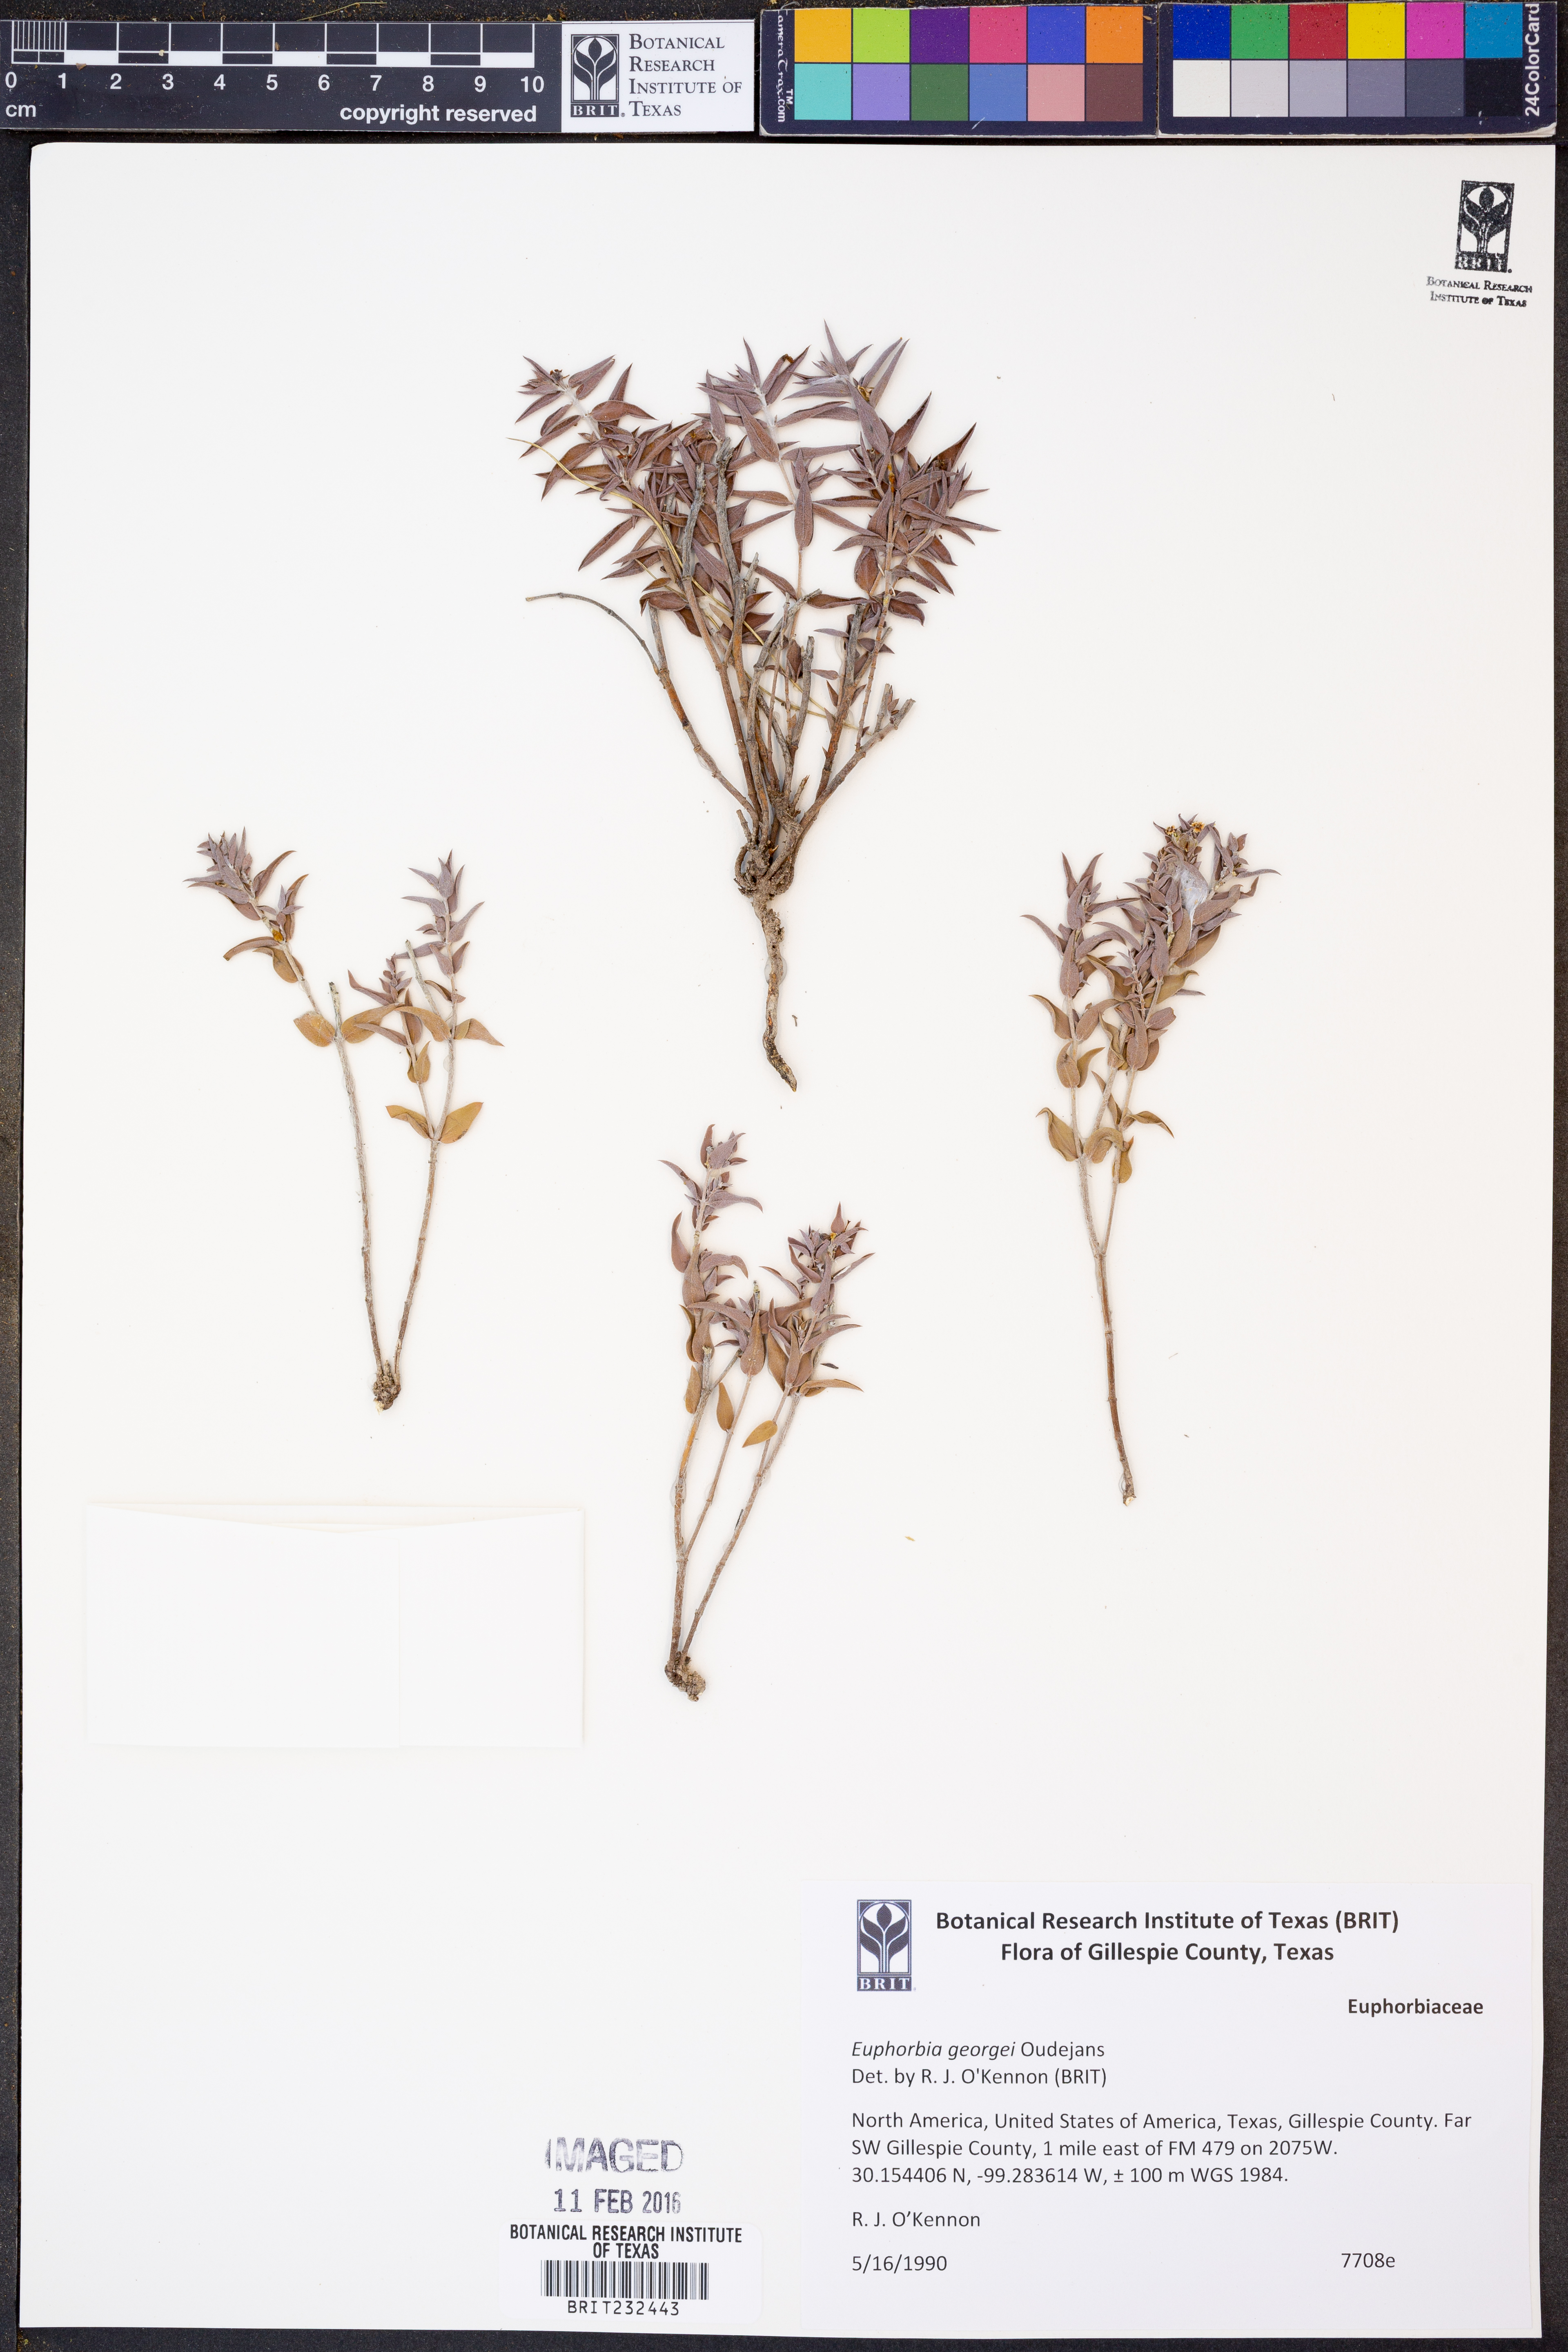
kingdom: Plantae
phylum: Tracheophyta
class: Magnoliopsida
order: Malpighiales
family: Euphorbiaceae
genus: Euphorbia
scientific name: Euphorbia acuta
